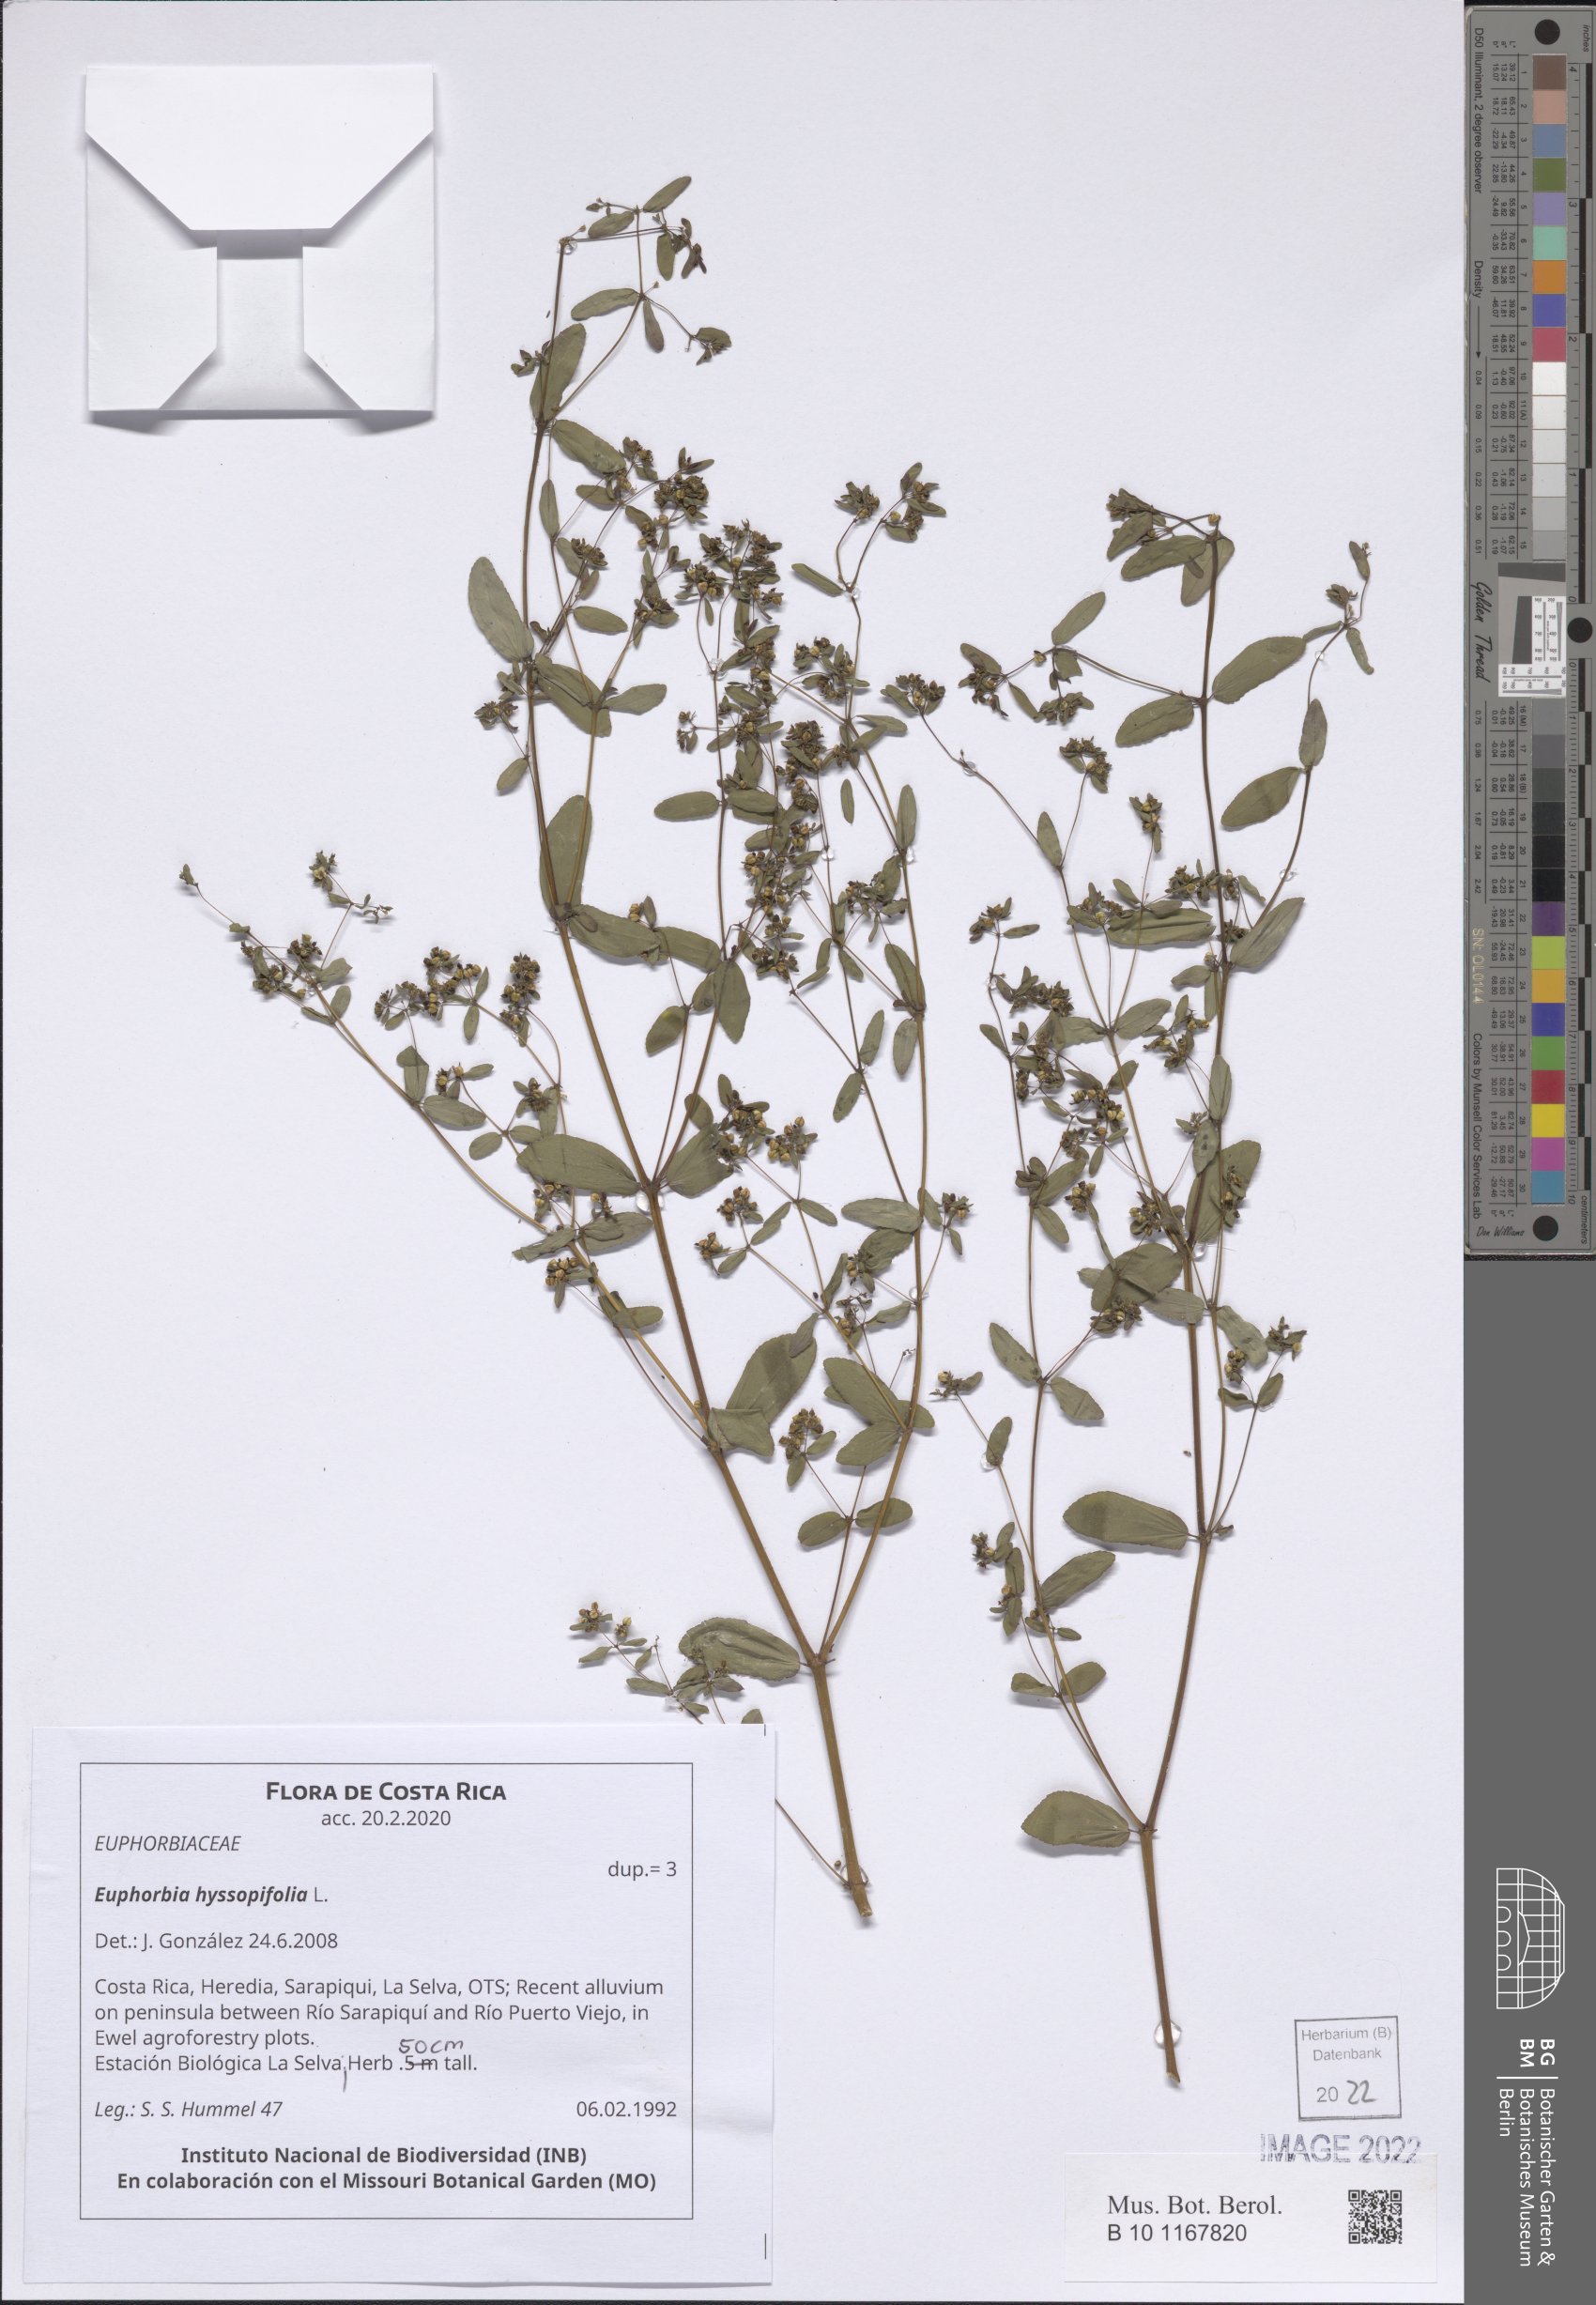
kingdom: Plantae
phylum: Tracheophyta
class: Magnoliopsida
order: Malpighiales
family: Euphorbiaceae
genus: Euphorbia
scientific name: Euphorbia hyssopifolia
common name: Hyssopleaf sandmat
